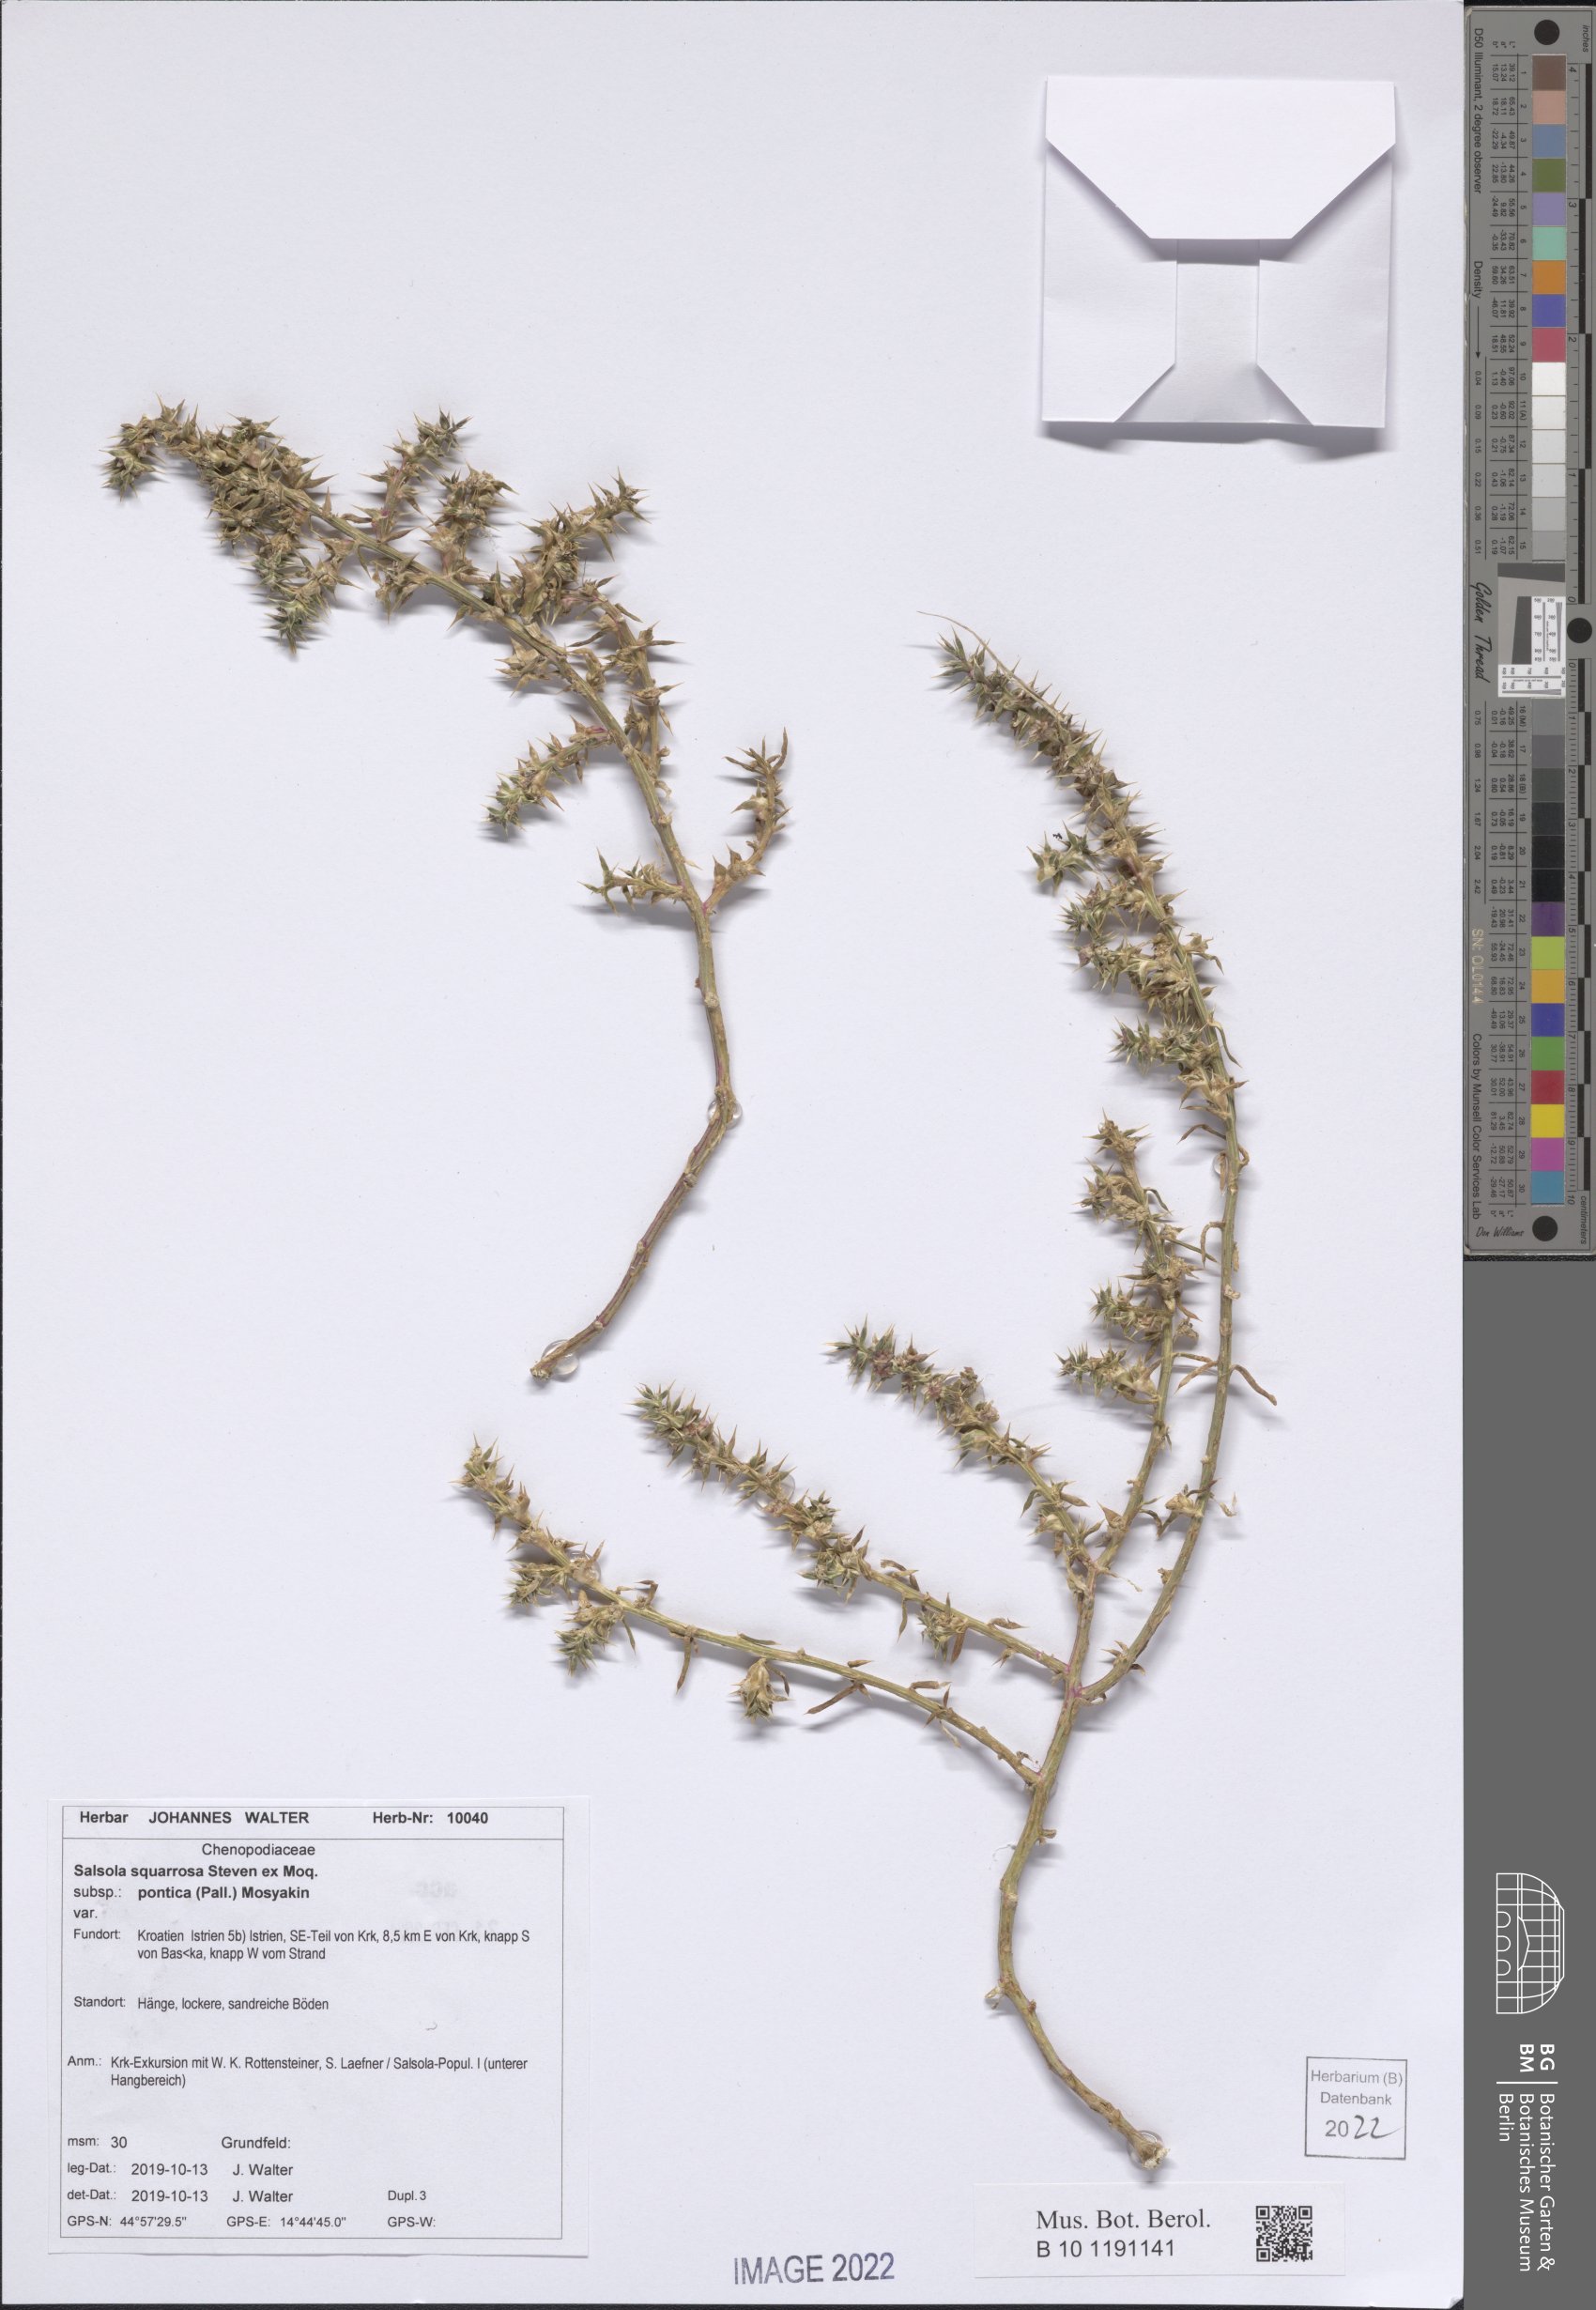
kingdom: Plantae
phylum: Tracheophyta
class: Magnoliopsida
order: Caryophyllales
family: Amaranthaceae
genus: Salsola
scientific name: Salsola squarrosa
